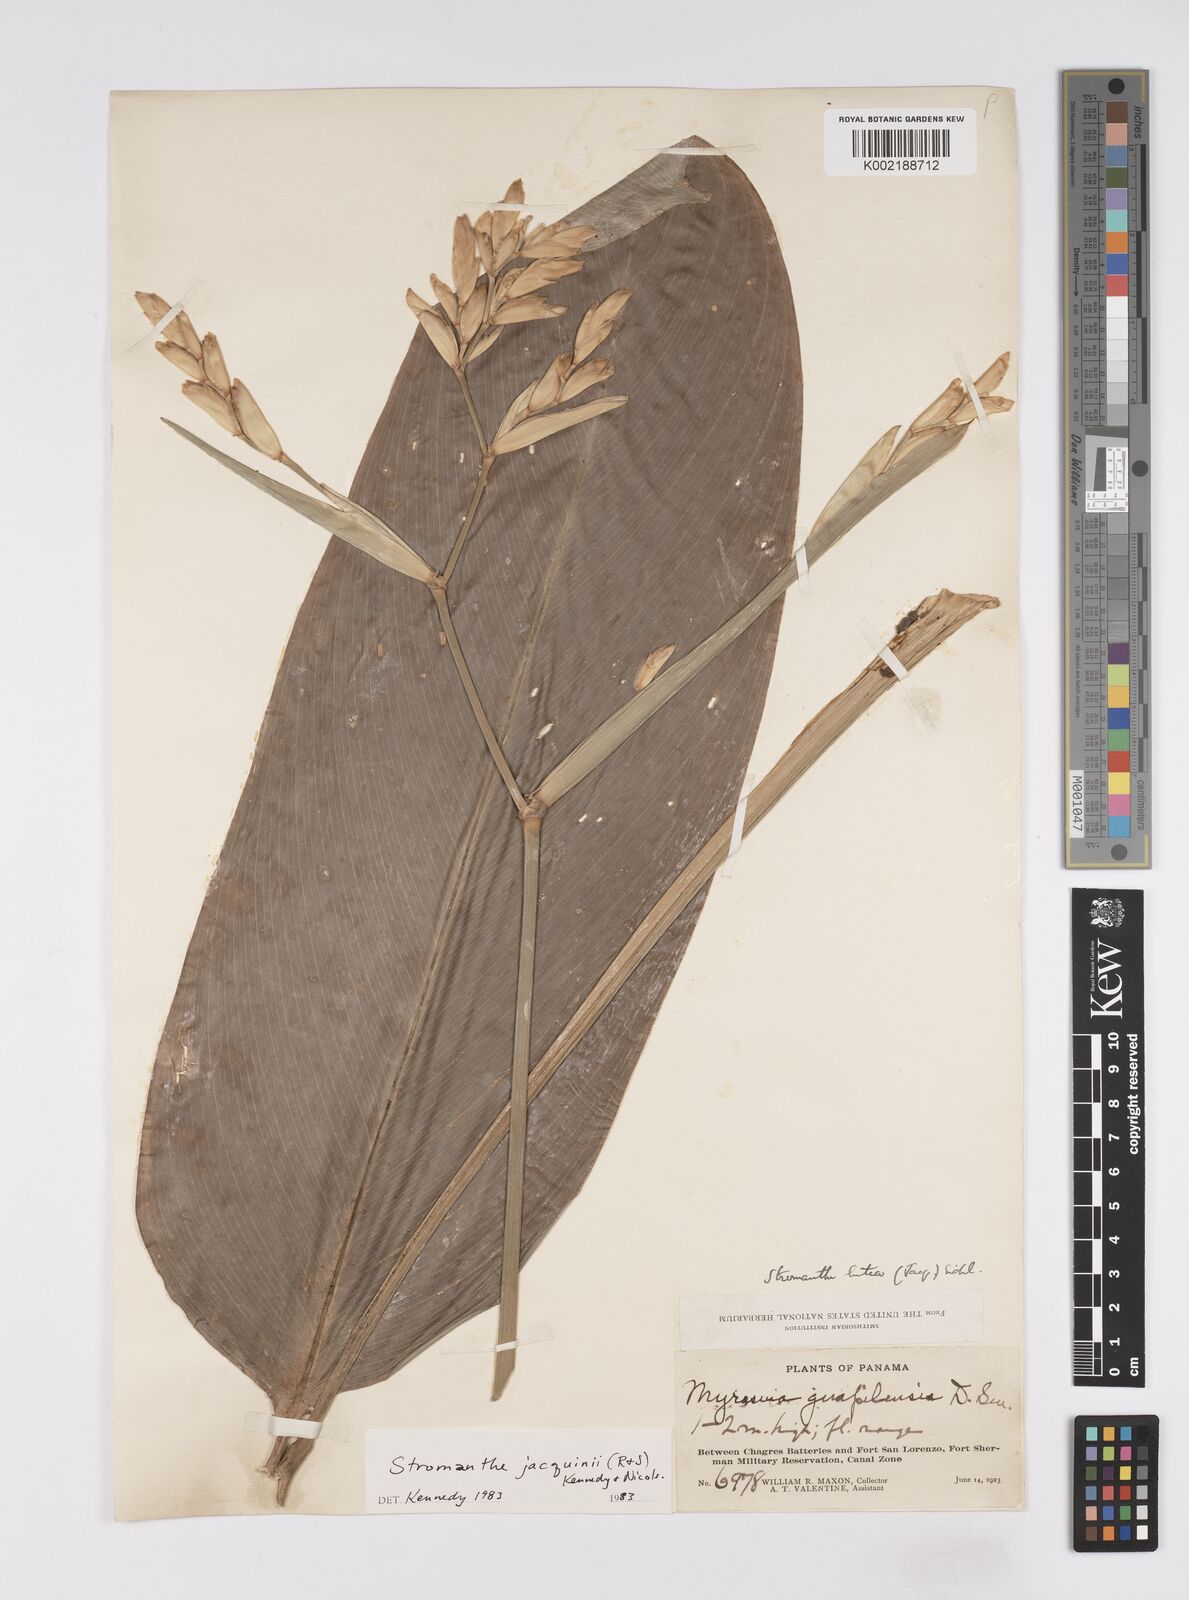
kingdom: Plantae
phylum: Tracheophyta
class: Liliopsida
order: Zingiberales
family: Marantaceae
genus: Stromanthe
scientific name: Stromanthe jacquinii
